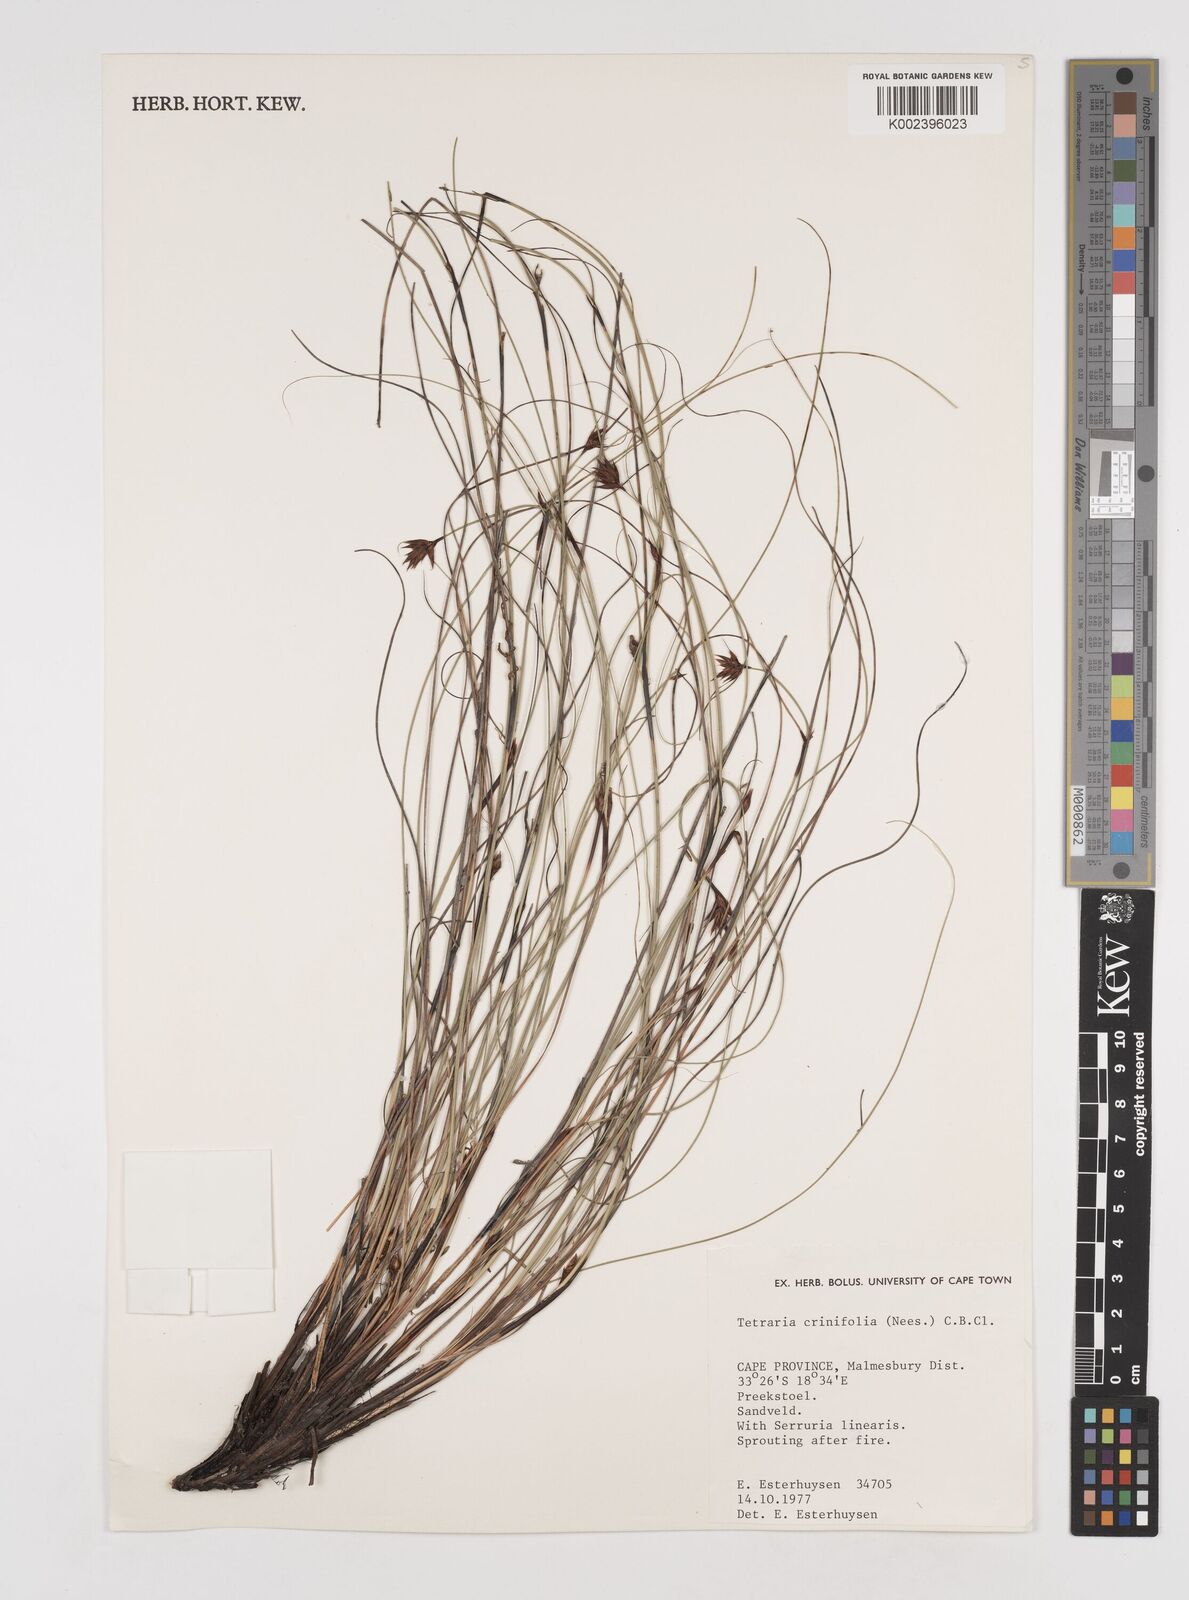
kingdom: Plantae
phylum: Tracheophyta
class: Liliopsida
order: Poales
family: Cyperaceae
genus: Tetraria
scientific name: Tetraria crinifolia
